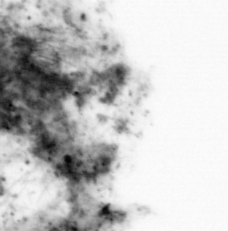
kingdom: Animalia
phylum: Chordata
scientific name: Chordata
